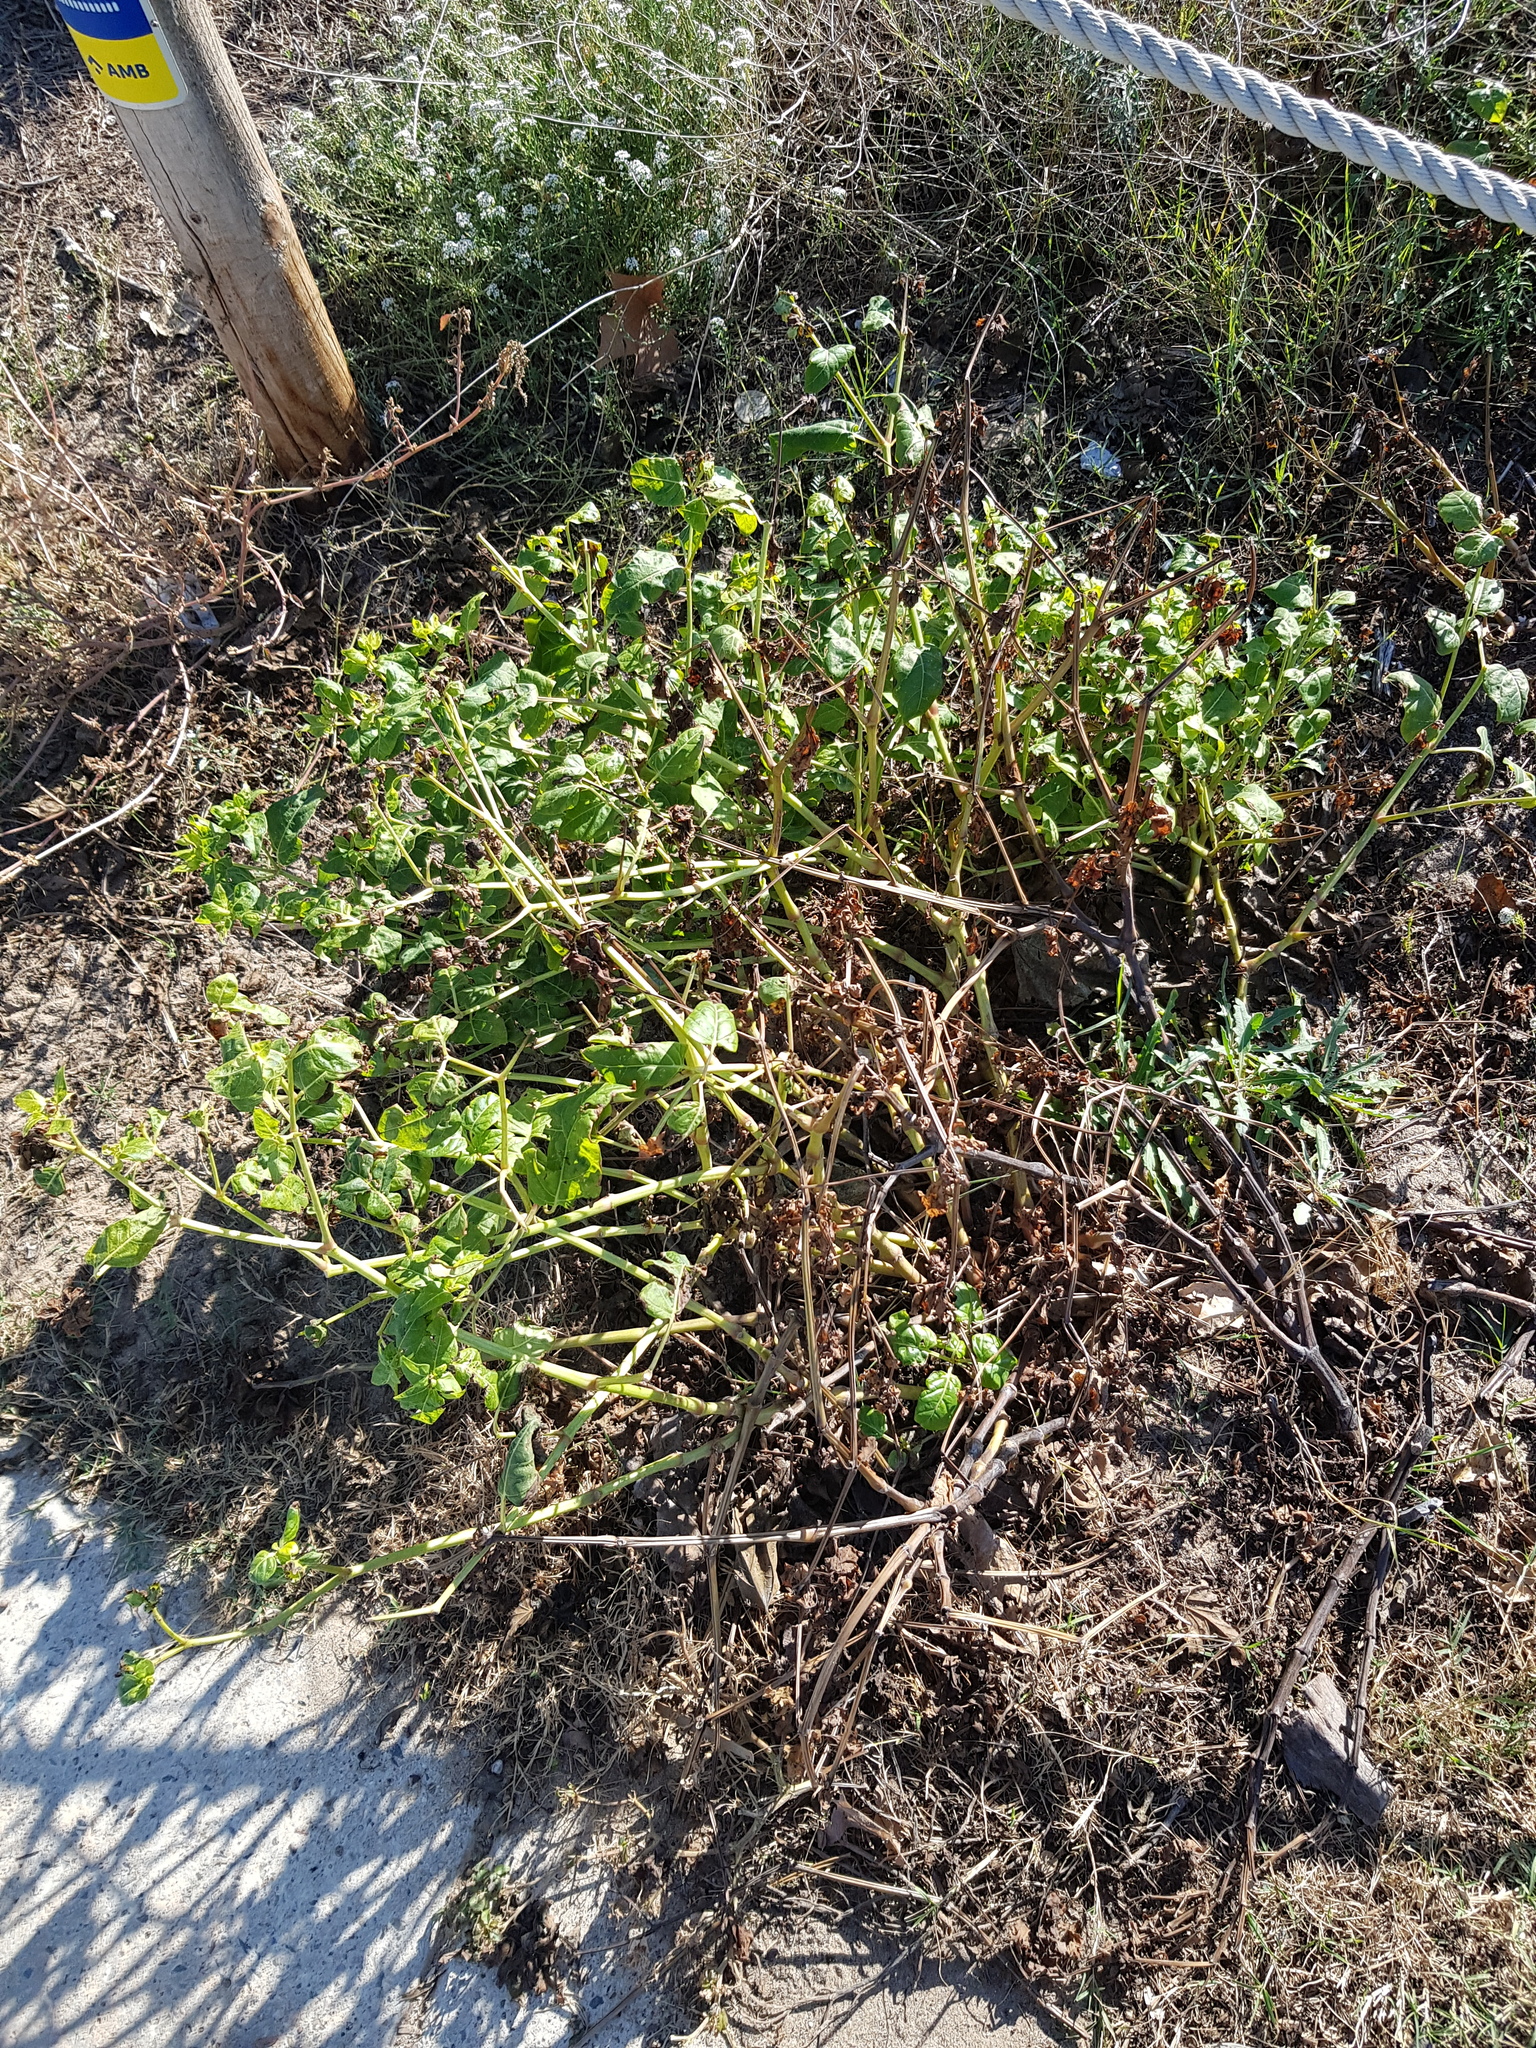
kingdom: Plantae
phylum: Tracheophyta
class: Magnoliopsida
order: Caryophyllales
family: Nyctaginaceae
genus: Mirabilis
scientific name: Mirabilis jalapa
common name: Marvel-of-peru
